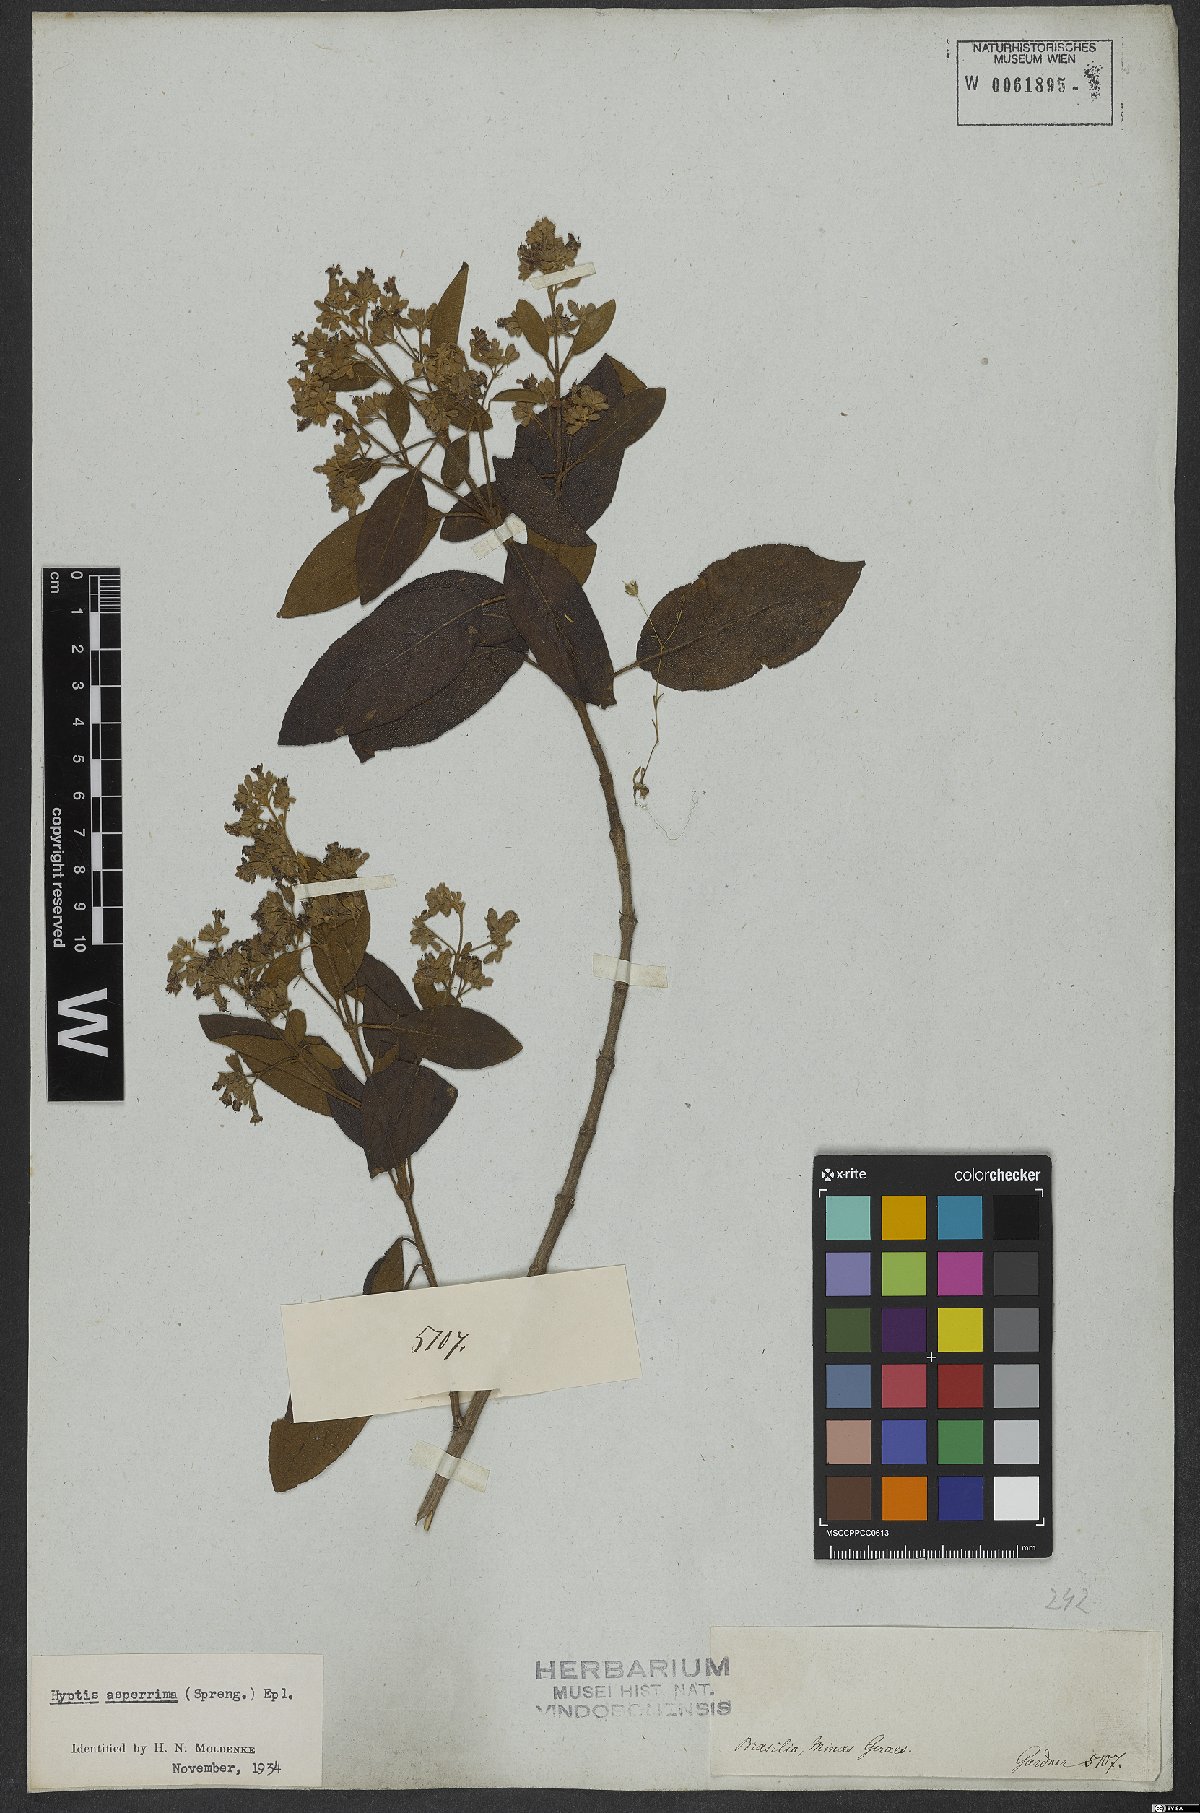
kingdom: Plantae
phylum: Tracheophyta
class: Magnoliopsida
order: Lamiales
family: Lamiaceae
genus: Hyptidendron
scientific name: Hyptidendron asperrimum
